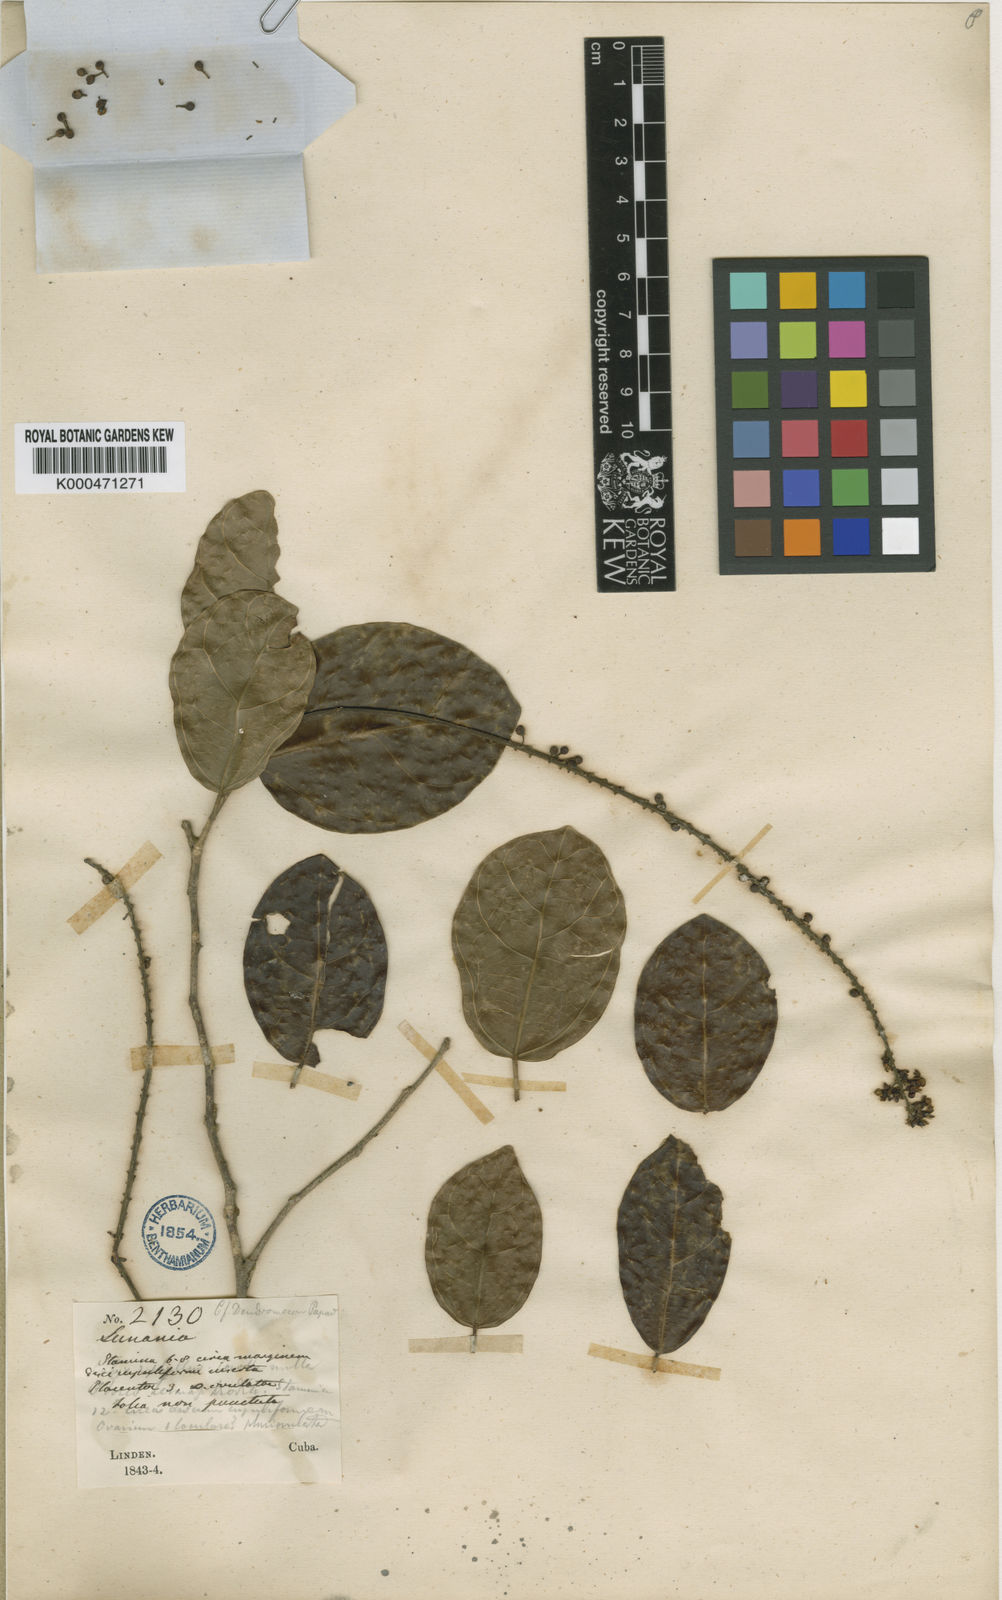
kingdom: Plantae
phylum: Tracheophyta
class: Magnoliopsida
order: Malpighiales
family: Salicaceae
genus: Lunania
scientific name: Lunania cubensis
